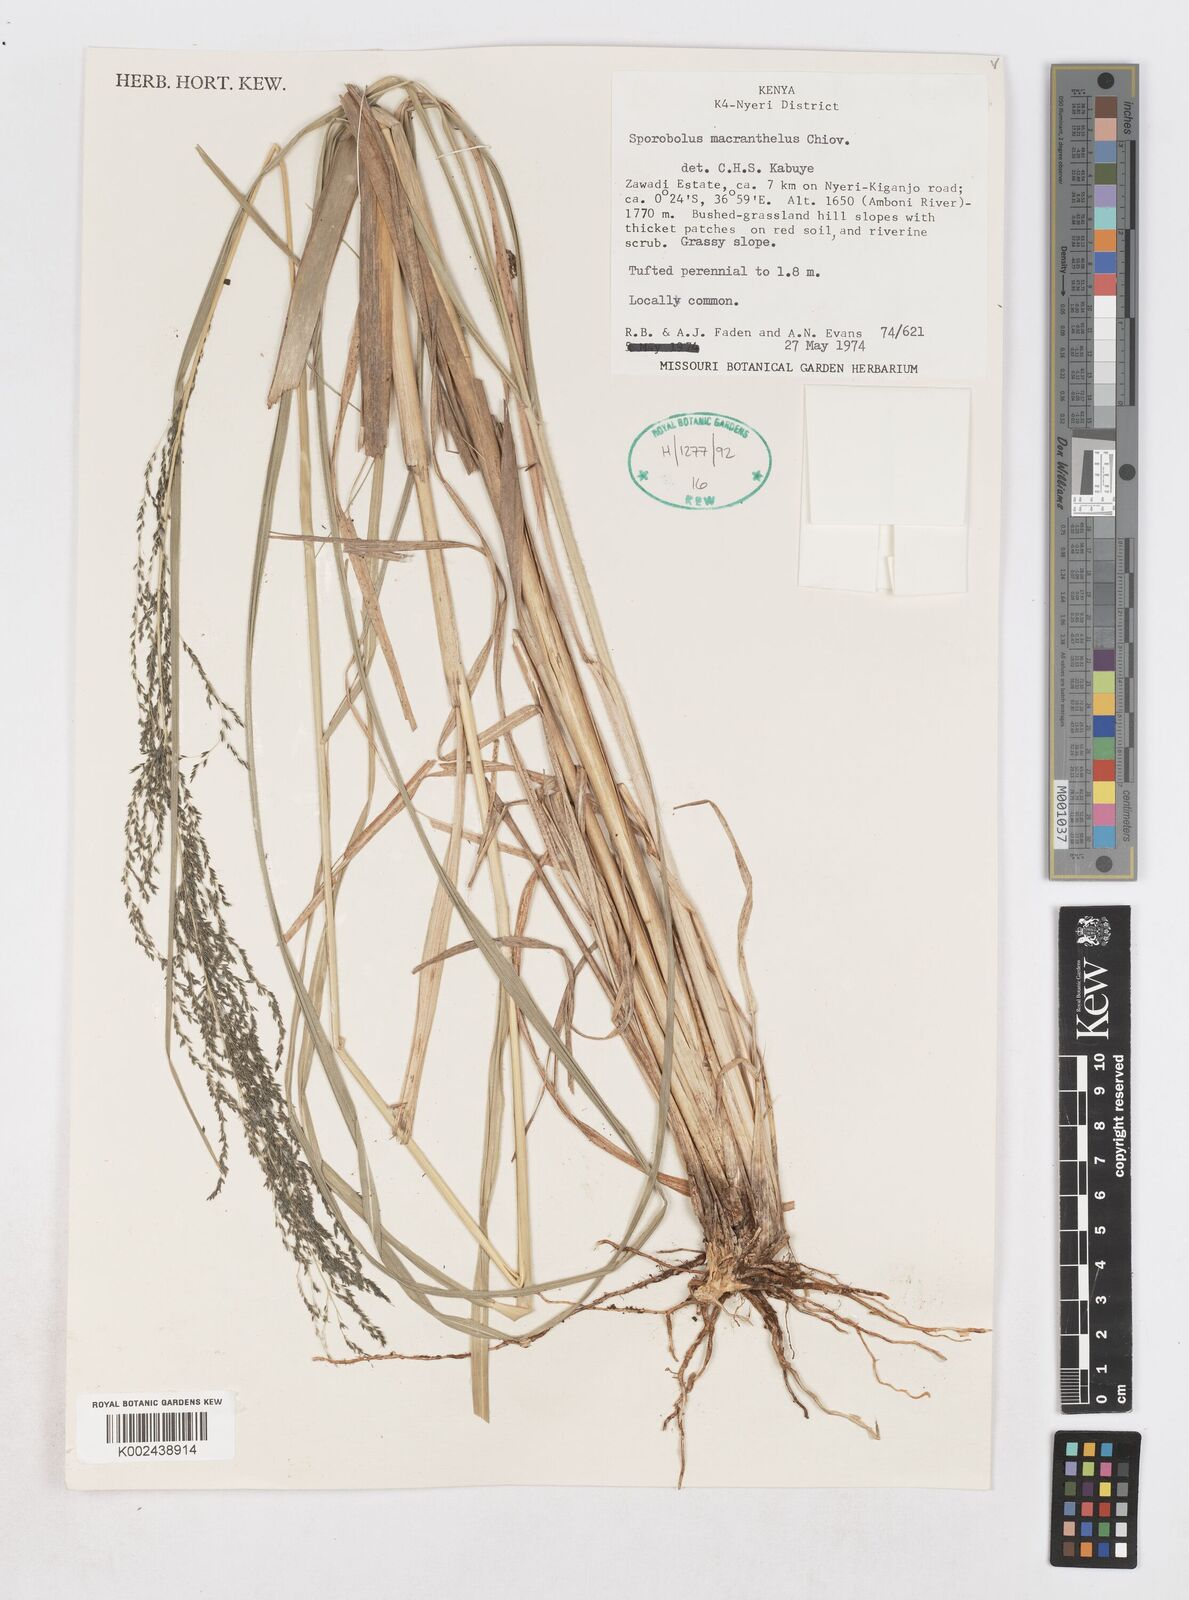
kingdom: Plantae
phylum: Tracheophyta
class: Liliopsida
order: Poales
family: Poaceae
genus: Sporobolus
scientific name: Sporobolus macranthelus
